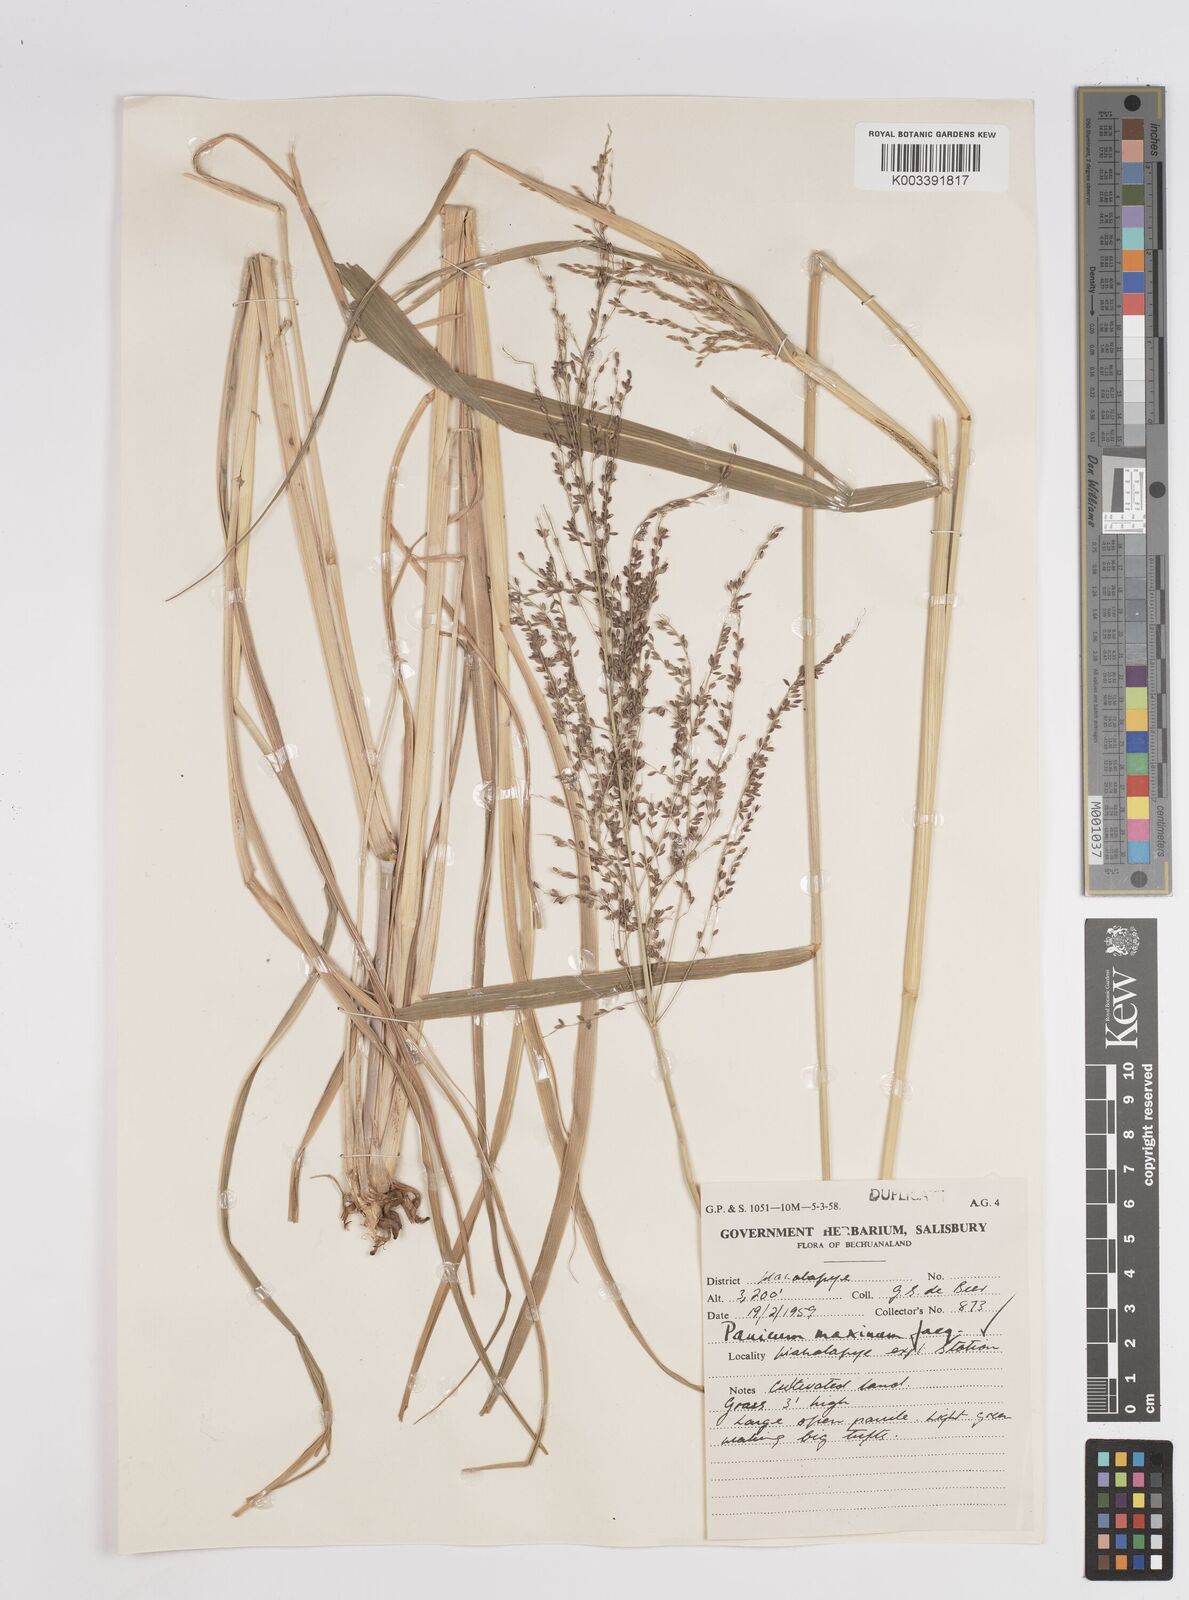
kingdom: Plantae
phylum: Tracheophyta
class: Liliopsida
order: Poales
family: Poaceae
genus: Megathyrsus
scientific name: Megathyrsus maximus
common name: Guineagrass
